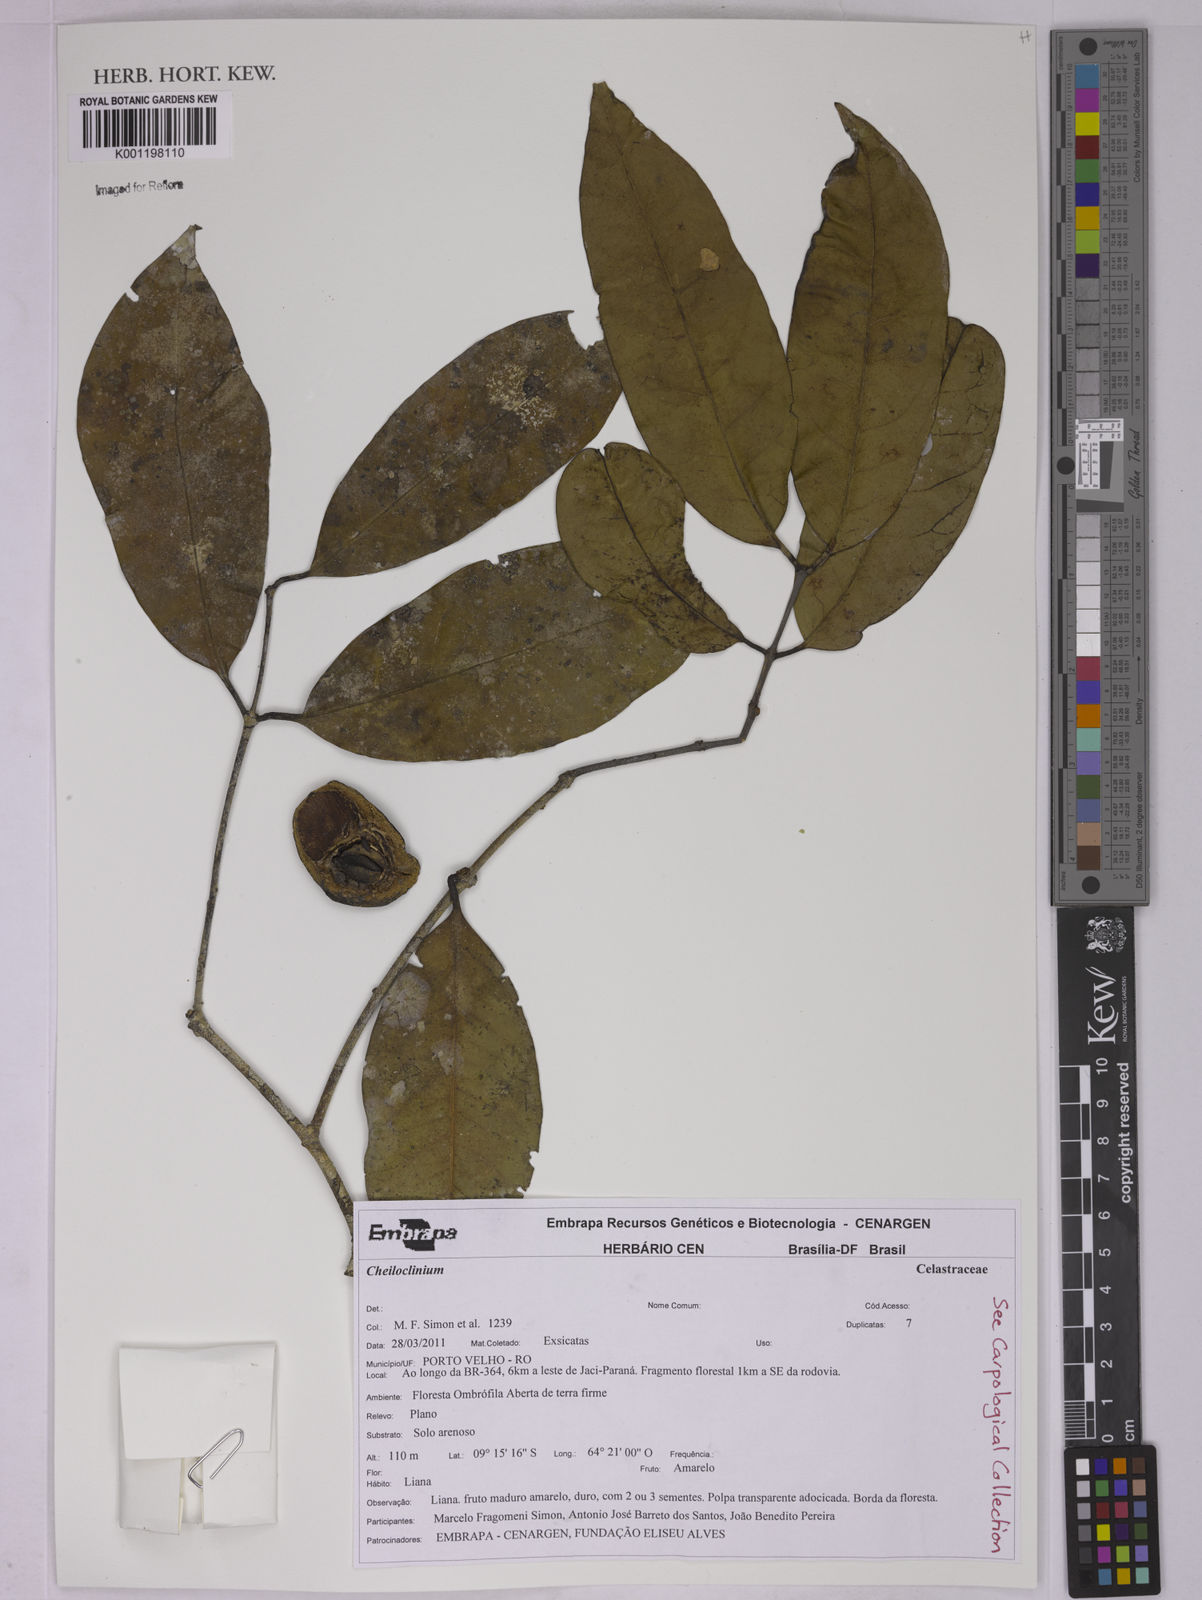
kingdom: Plantae
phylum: Tracheophyta
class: Magnoliopsida
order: Celastrales
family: Celastraceae
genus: Cheiloclinium
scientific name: Cheiloclinium
